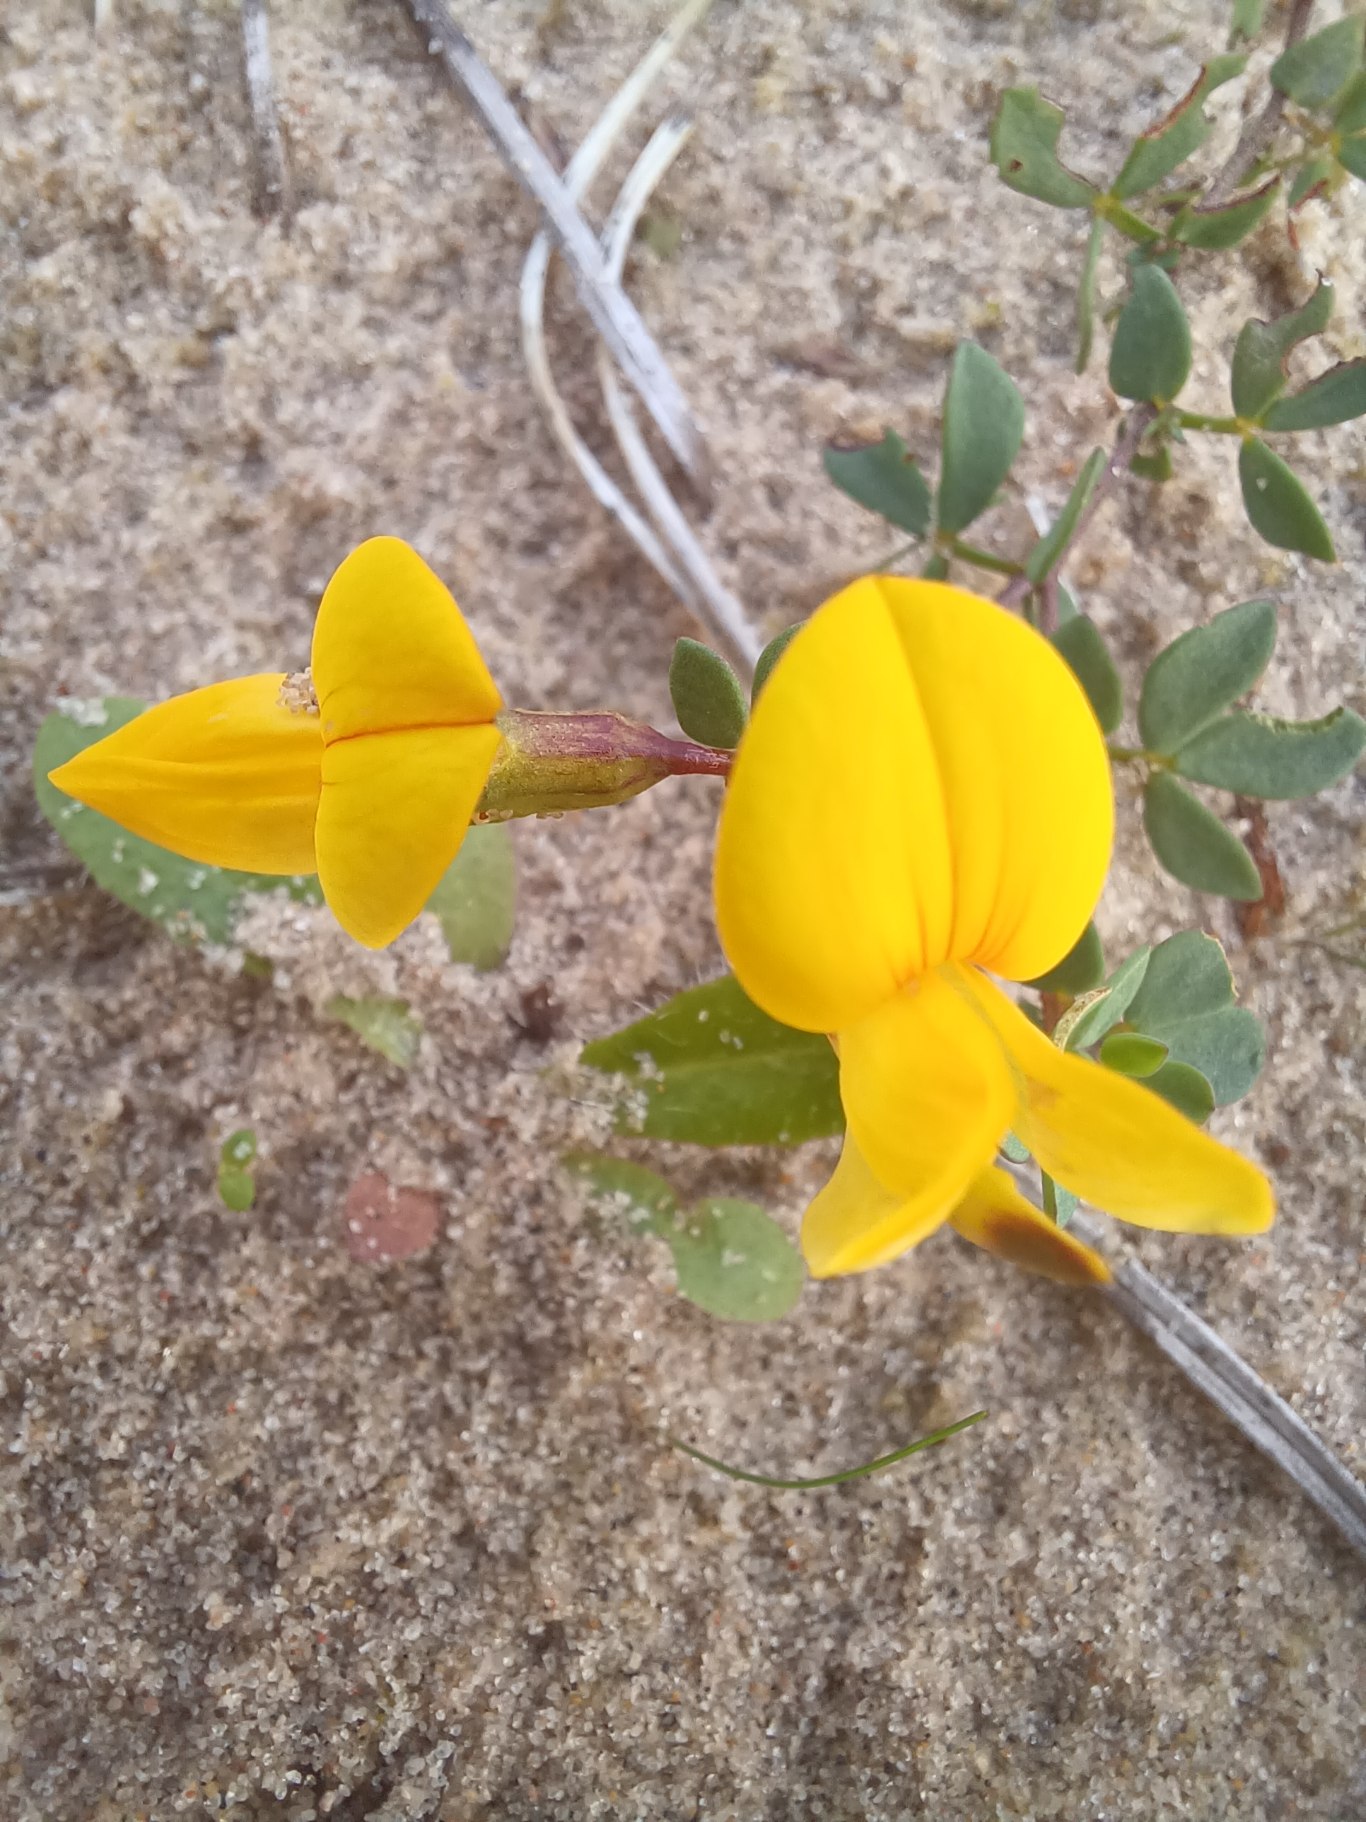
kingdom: Plantae
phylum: Tracheophyta
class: Magnoliopsida
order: Fabales
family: Fabaceae
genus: Lotus
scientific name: Lotus corniculatus
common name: Almindelig kællingetand
